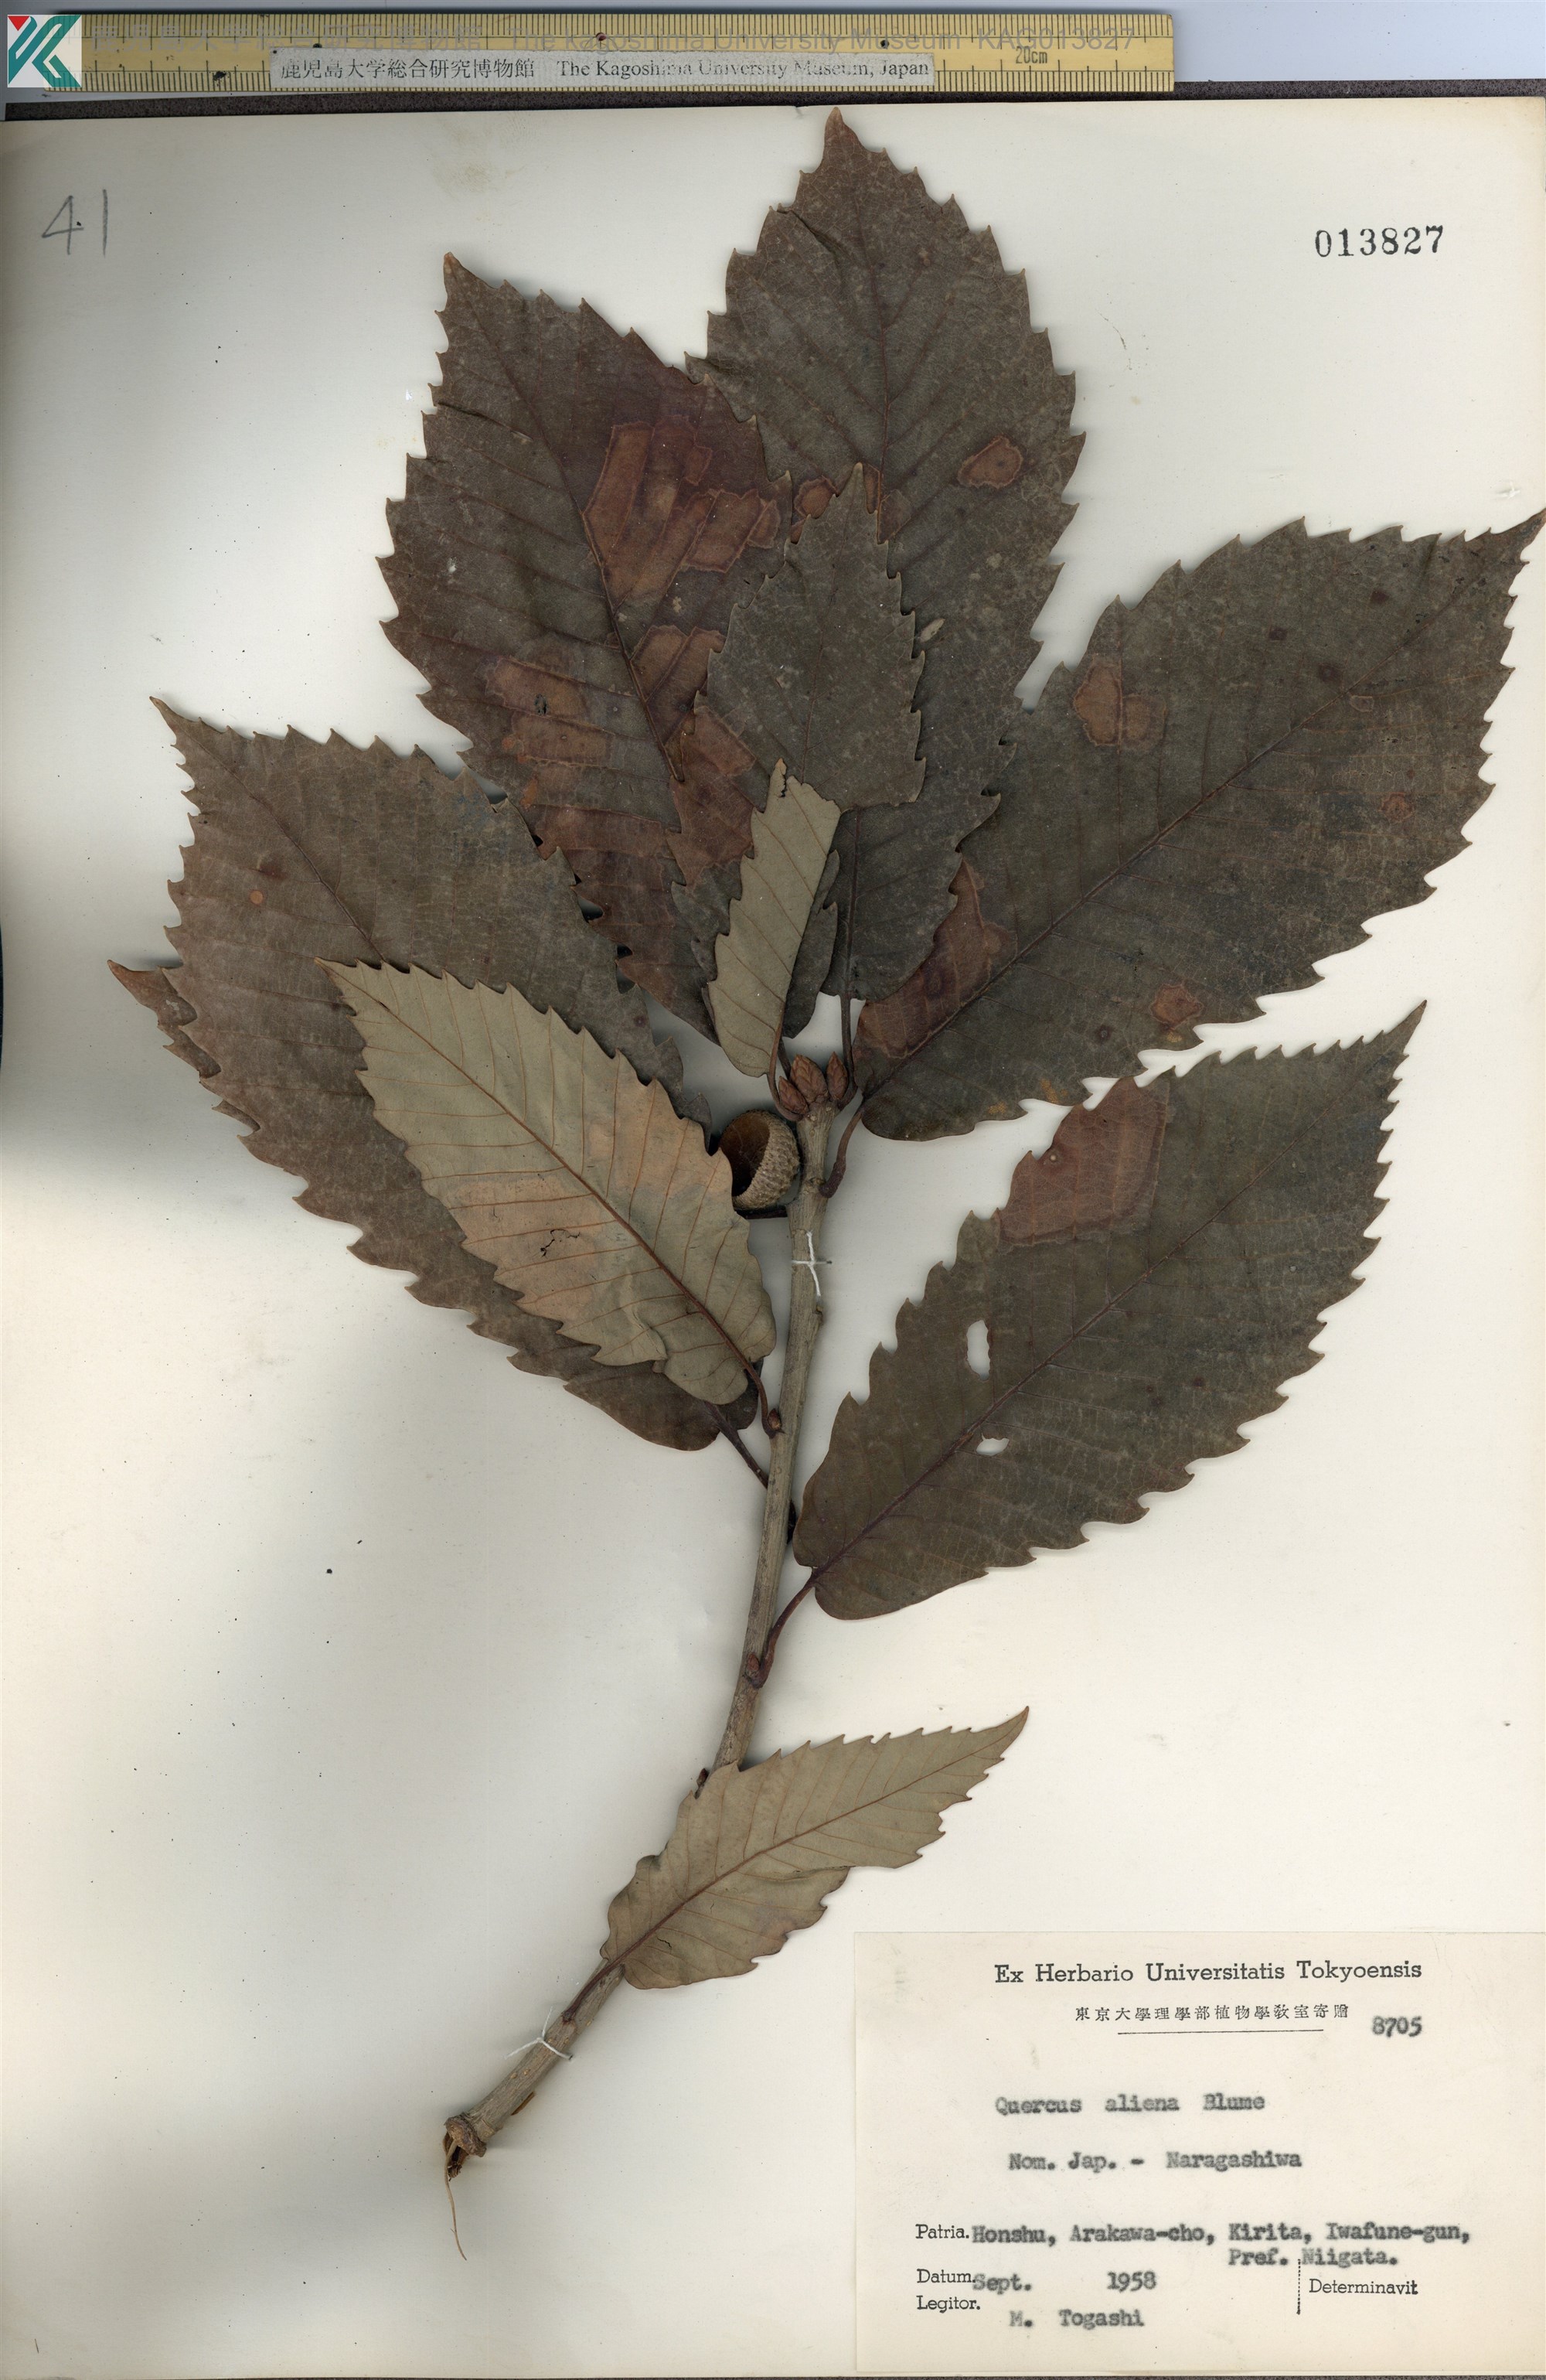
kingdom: Plantae
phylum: Tracheophyta
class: Magnoliopsida
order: Fagales
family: Fagaceae
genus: Quercus
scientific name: Quercus aliena
